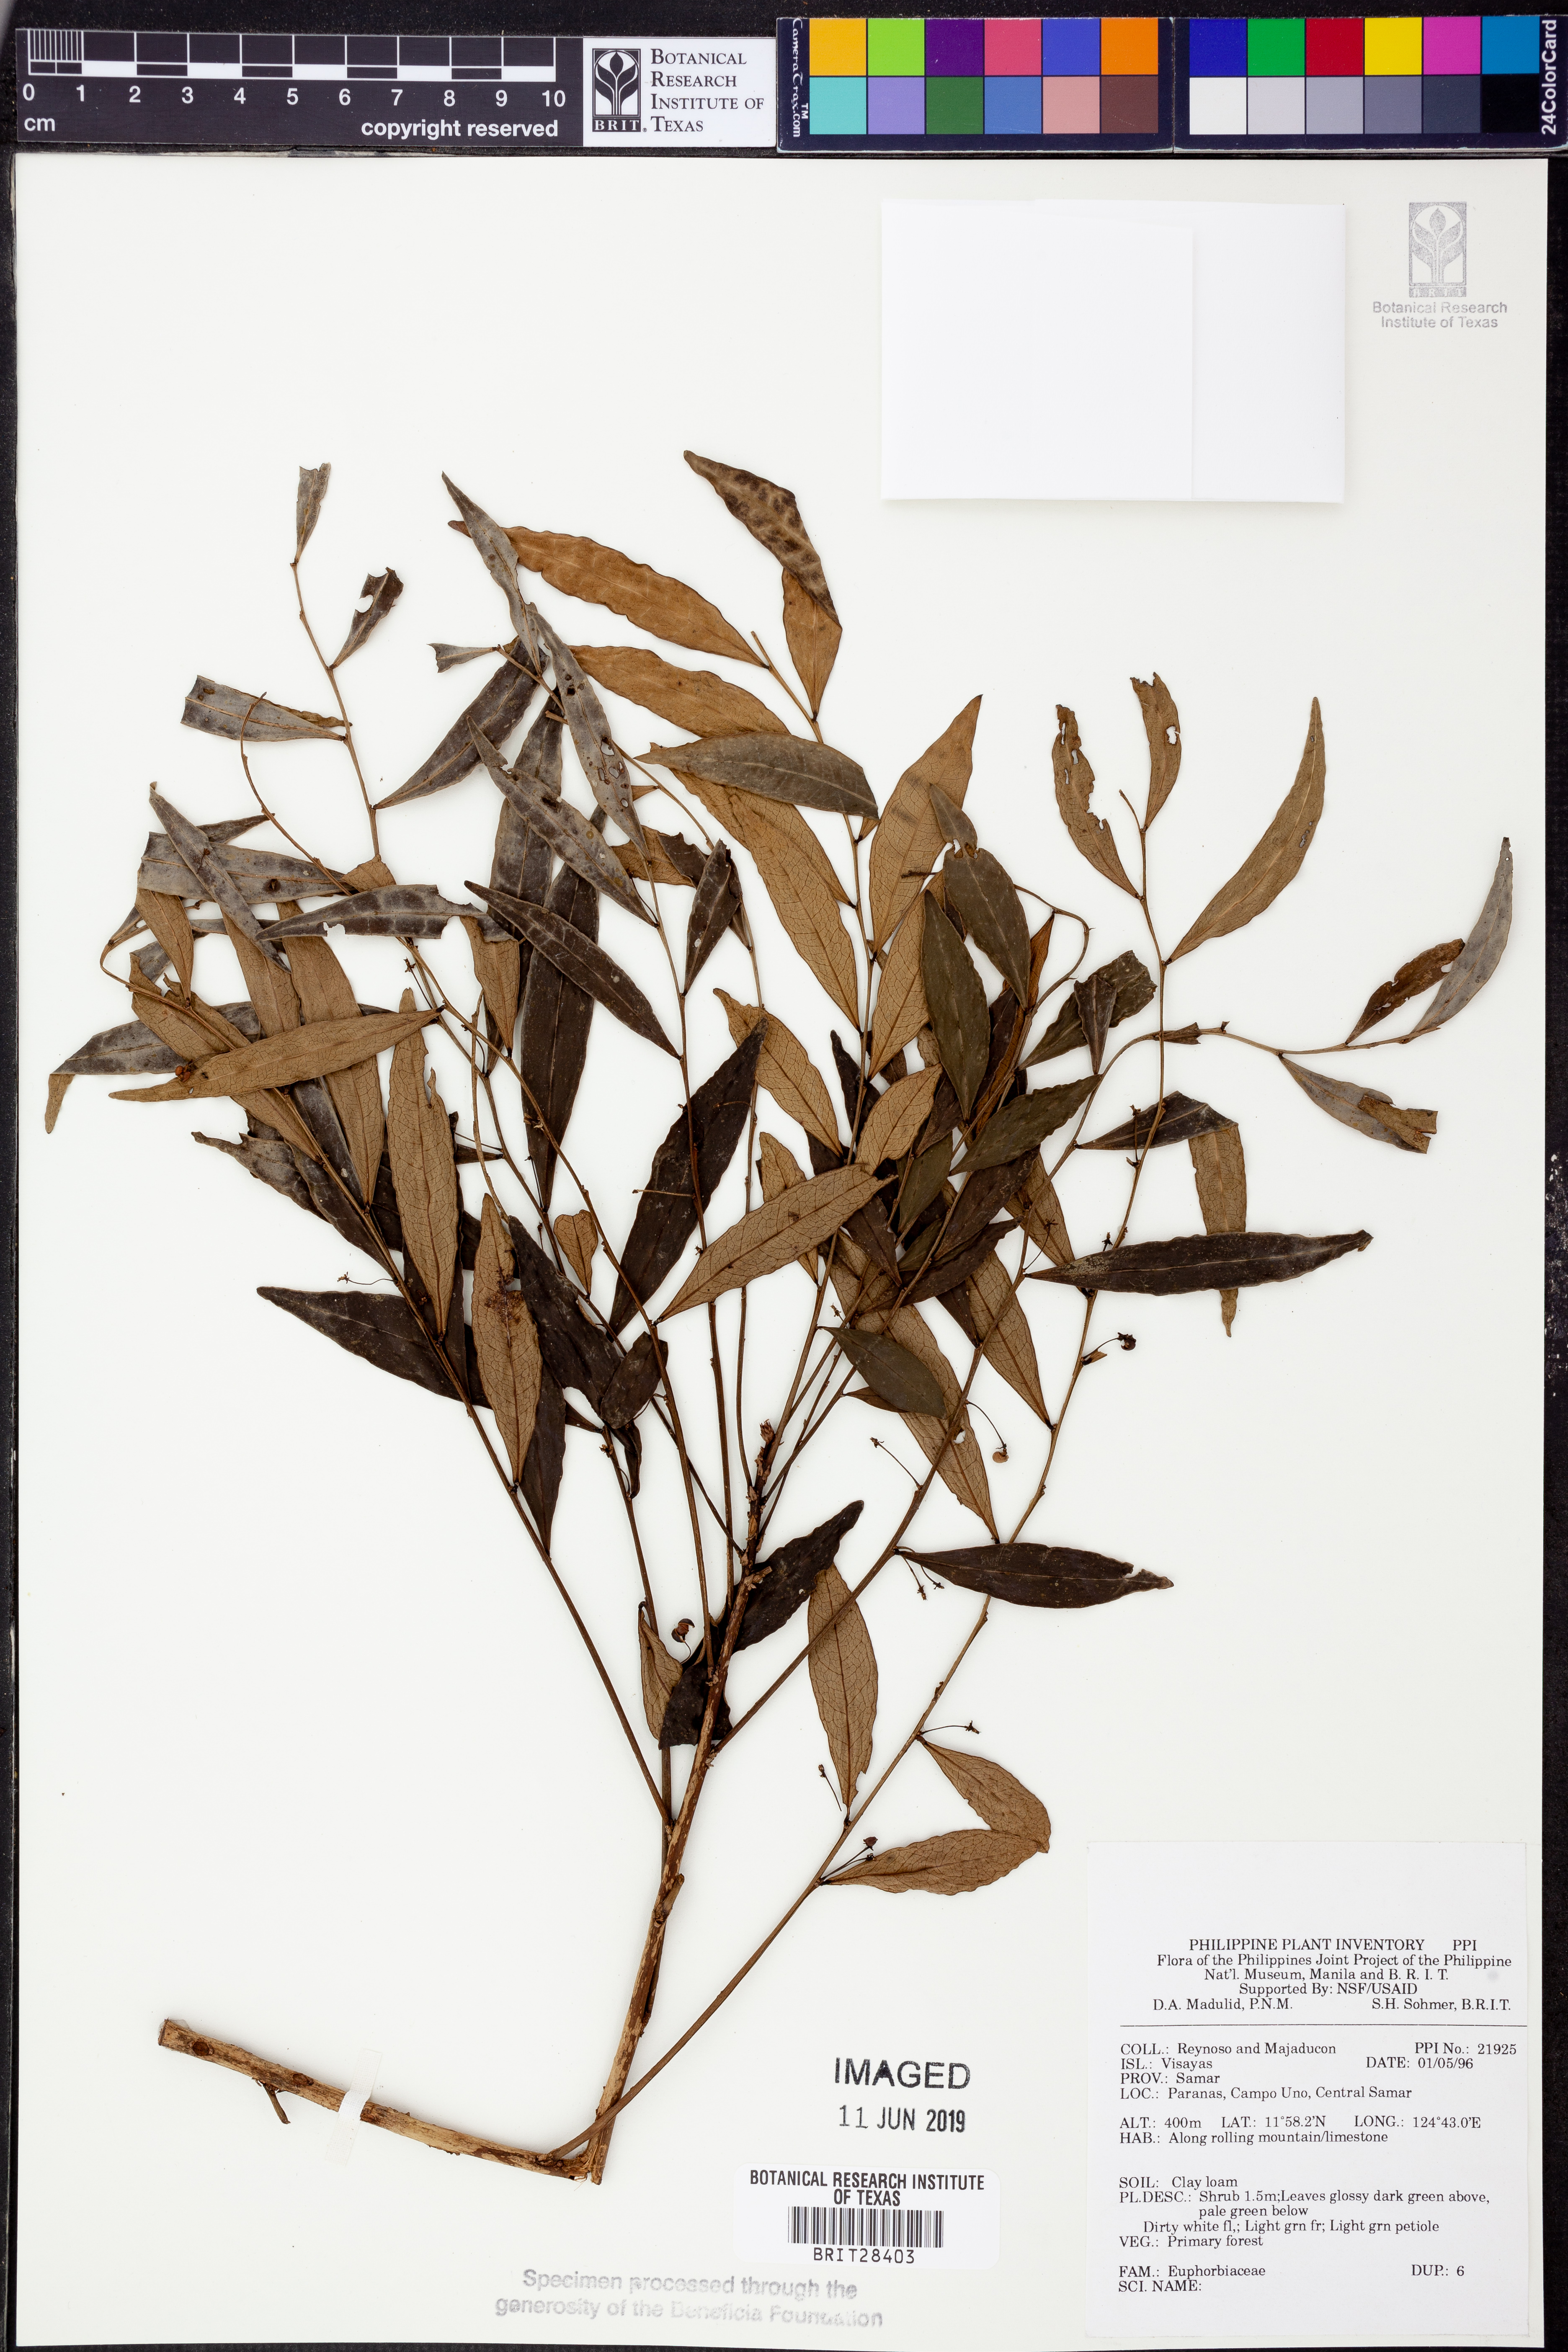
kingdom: Plantae
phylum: Tracheophyta
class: Magnoliopsida
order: Malpighiales
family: Euphorbiaceae
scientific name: Euphorbiaceae
